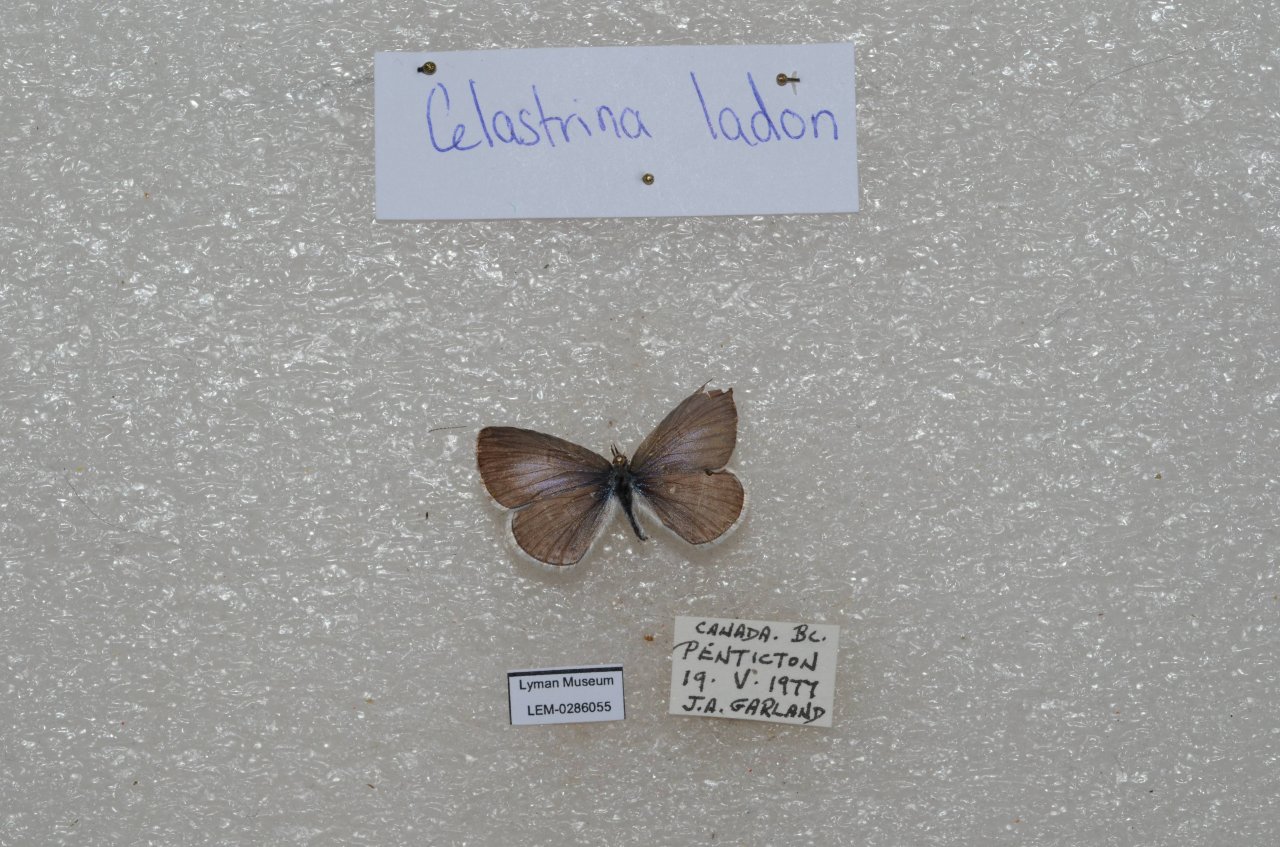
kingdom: Animalia
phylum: Arthropoda
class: Insecta
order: Lepidoptera
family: Lycaenidae
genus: Celastrina
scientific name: Celastrina
